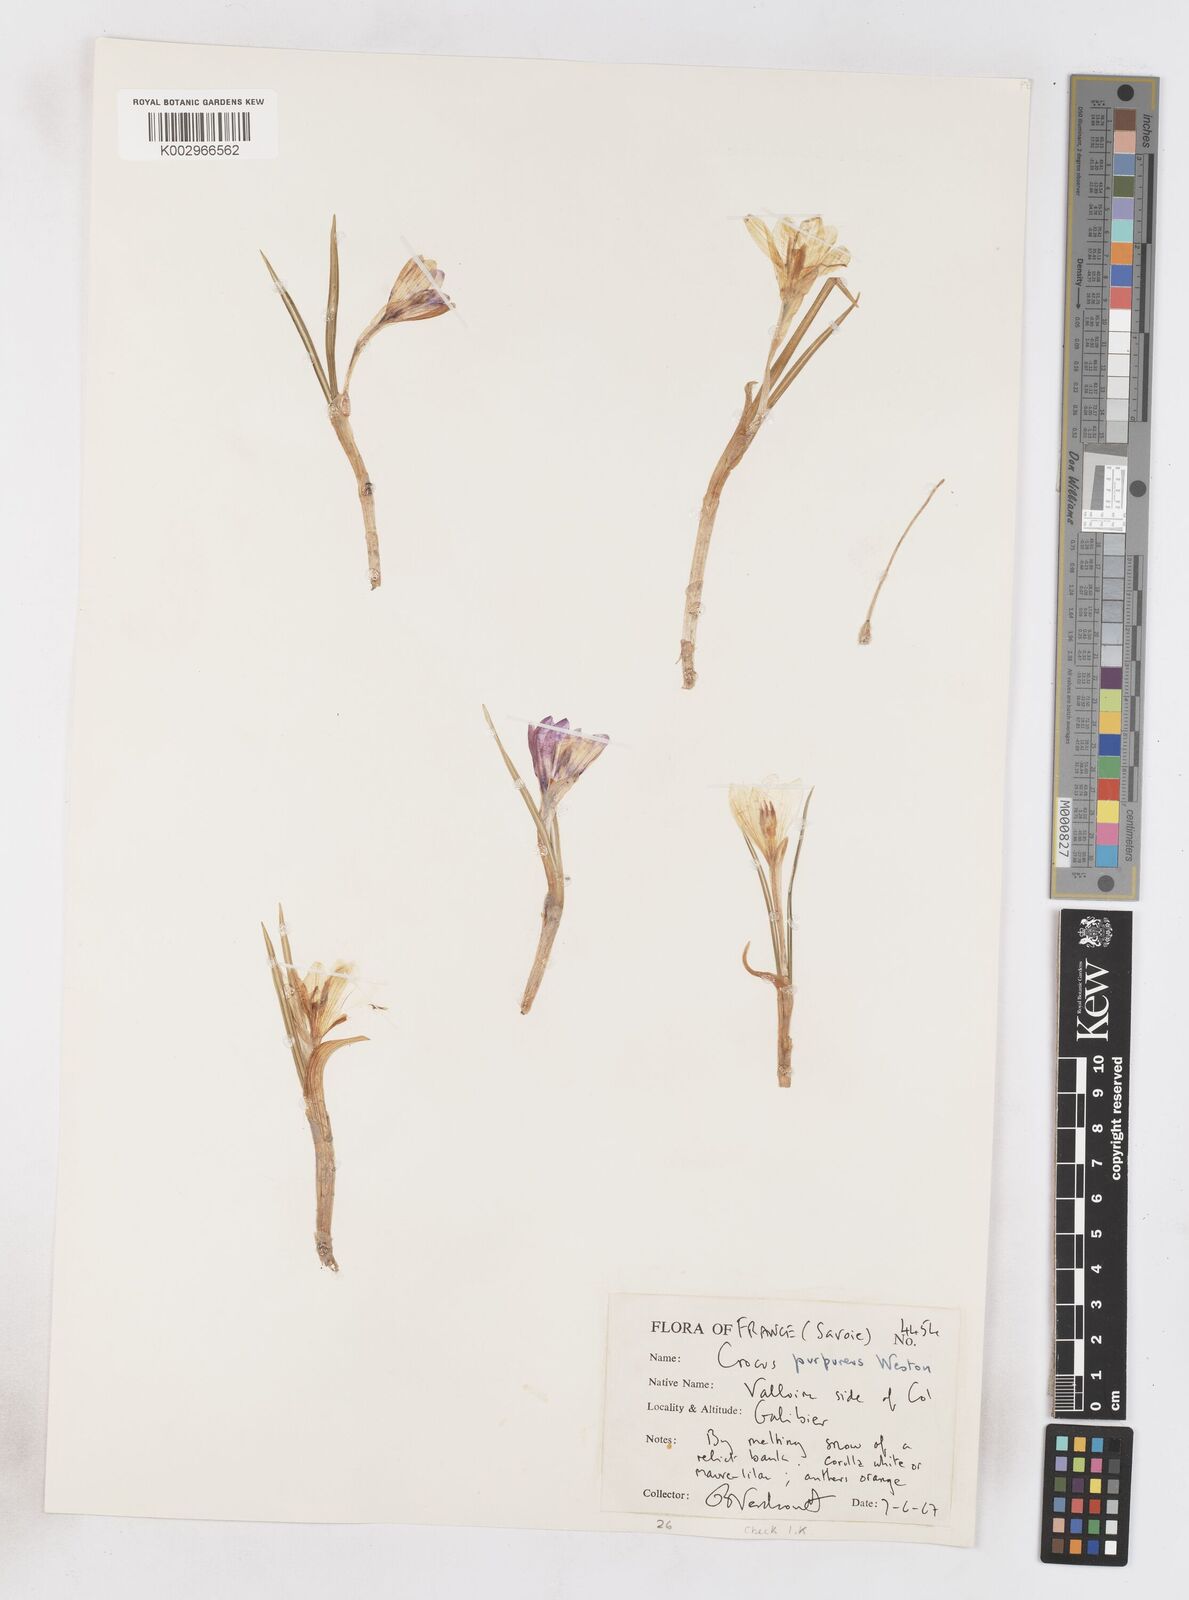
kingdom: Plantae
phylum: Tracheophyta
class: Liliopsida
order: Asparagales
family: Iridaceae
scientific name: Iridaceae
